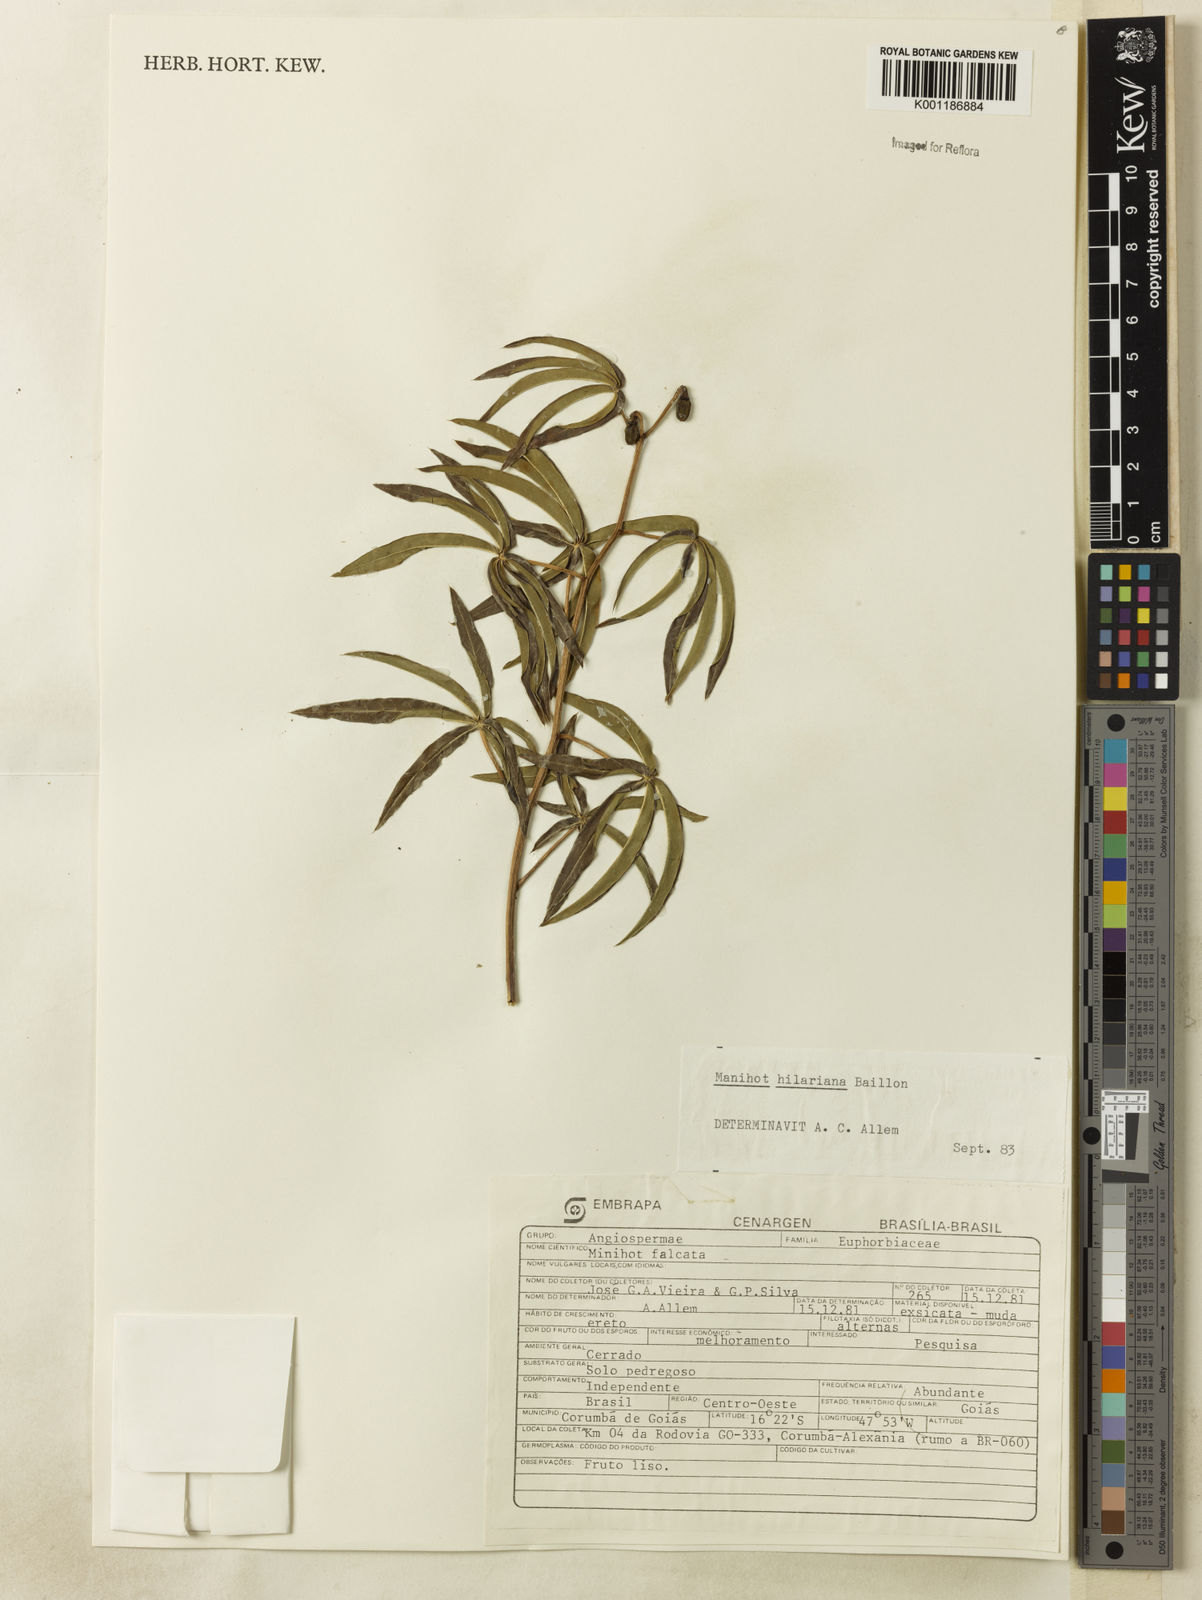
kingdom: Plantae
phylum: Tracheophyta
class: Magnoliopsida
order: Malpighiales
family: Euphorbiaceae
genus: Manihot
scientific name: Manihot hilariana
